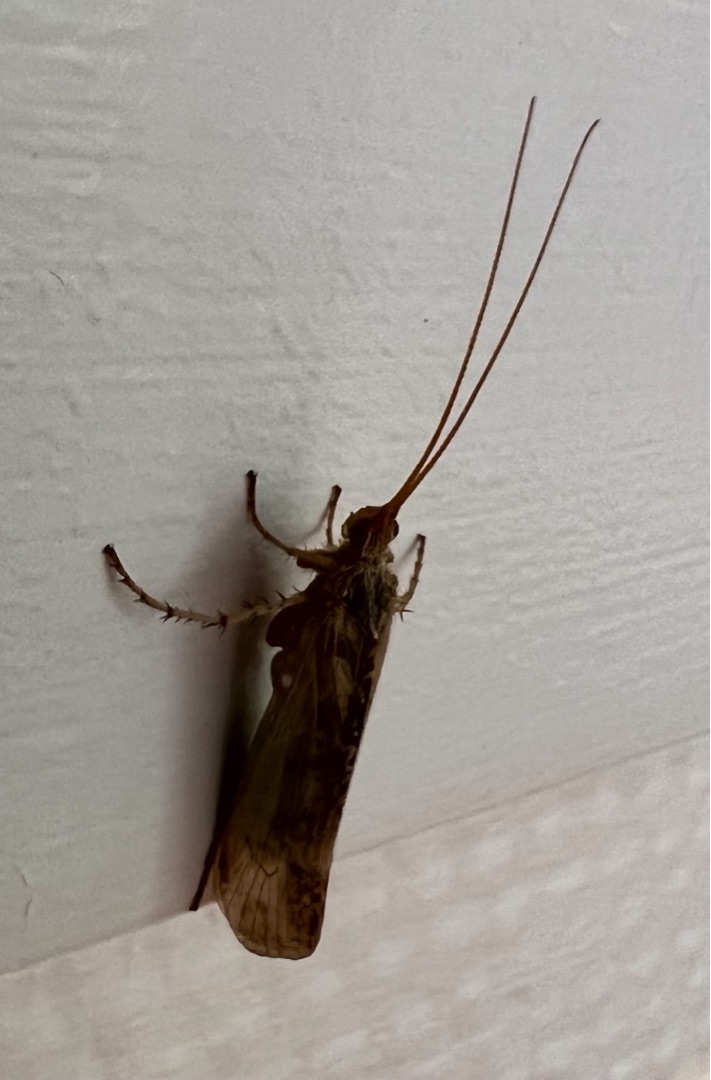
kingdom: Animalia
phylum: Arthropoda
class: Insecta
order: Trichoptera
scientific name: Trichoptera
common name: Vårfluer
